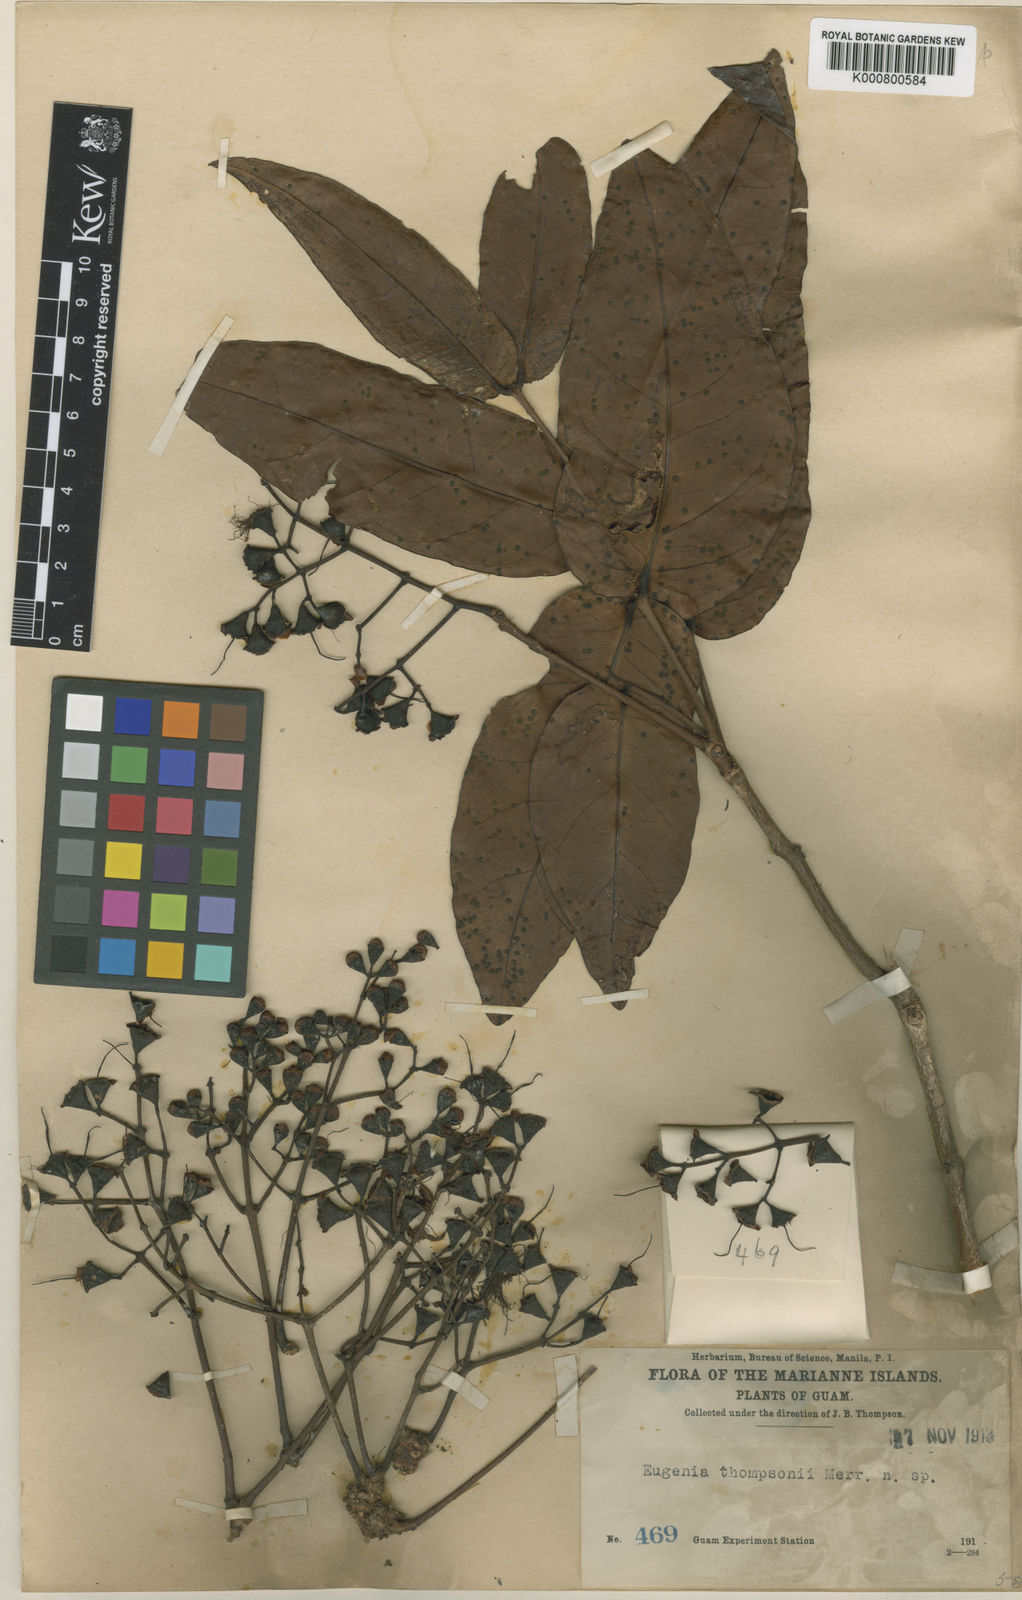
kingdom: Plantae
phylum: Tracheophyta
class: Magnoliopsida
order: Myrtales
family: Myrtaceae
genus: Syzygium
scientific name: Syzygium thompsonii
